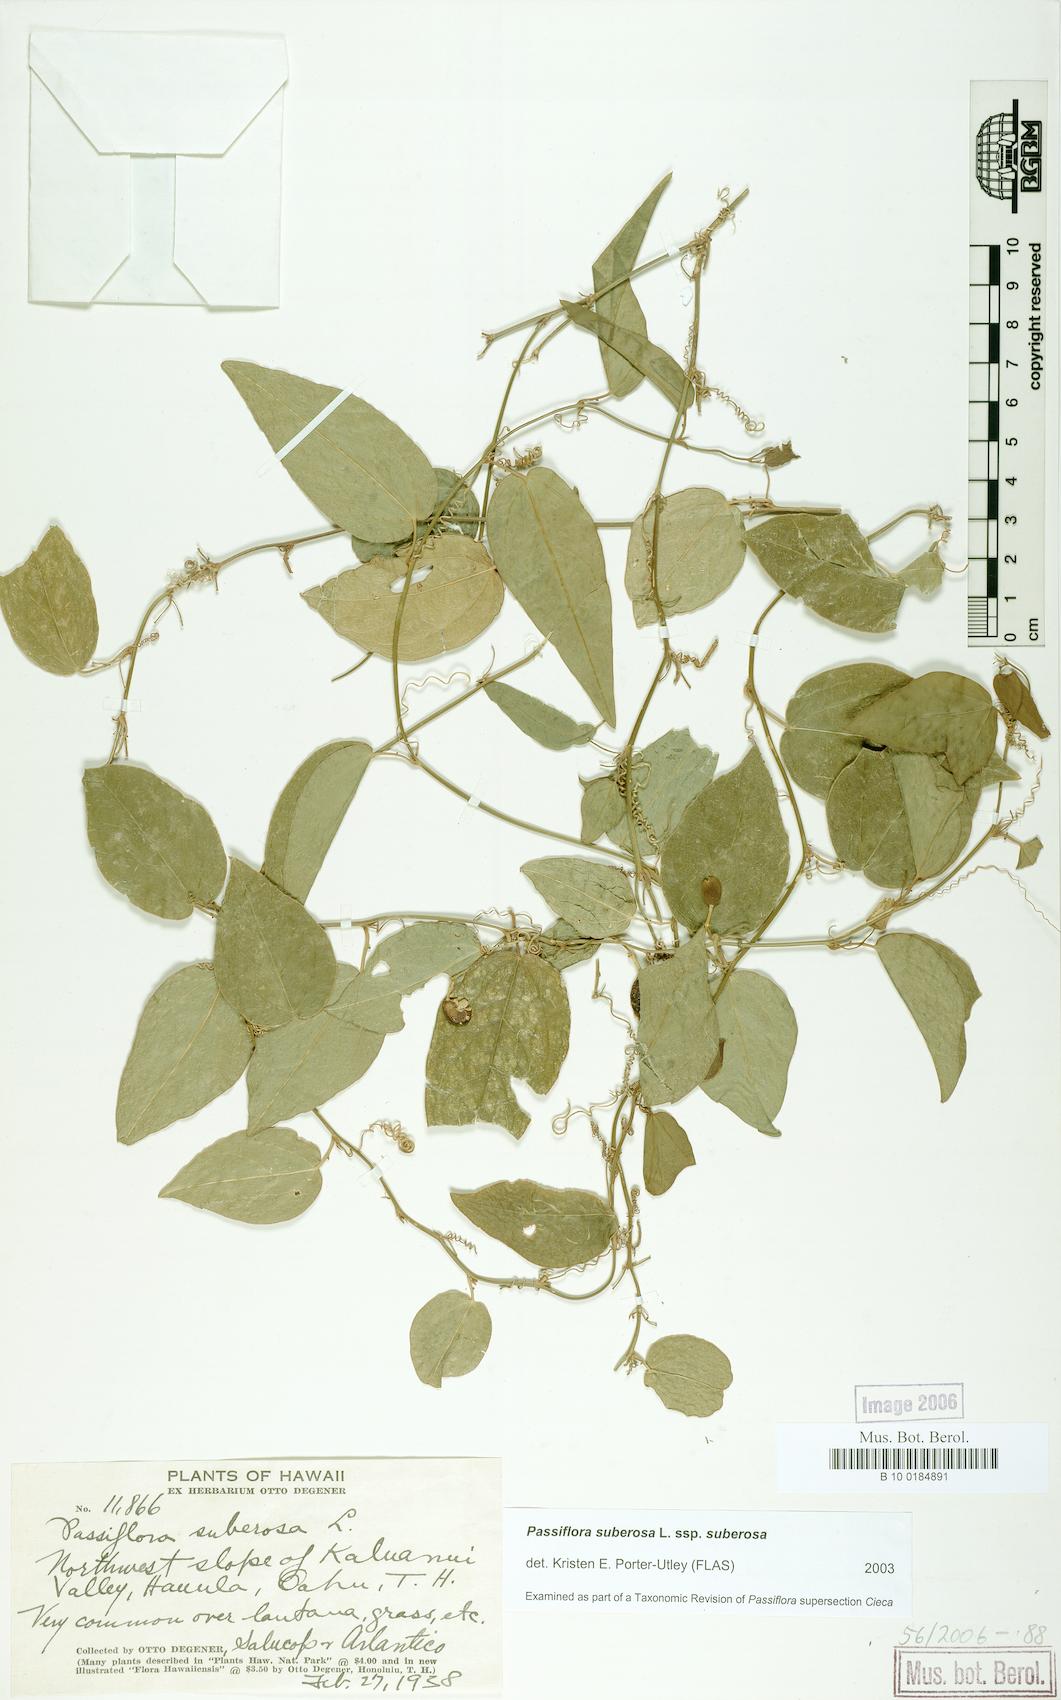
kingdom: Plantae
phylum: Tracheophyta
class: Magnoliopsida
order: Malpighiales
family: Passifloraceae
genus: Passiflora
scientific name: Passiflora suberosa
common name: Wild passionfruit
